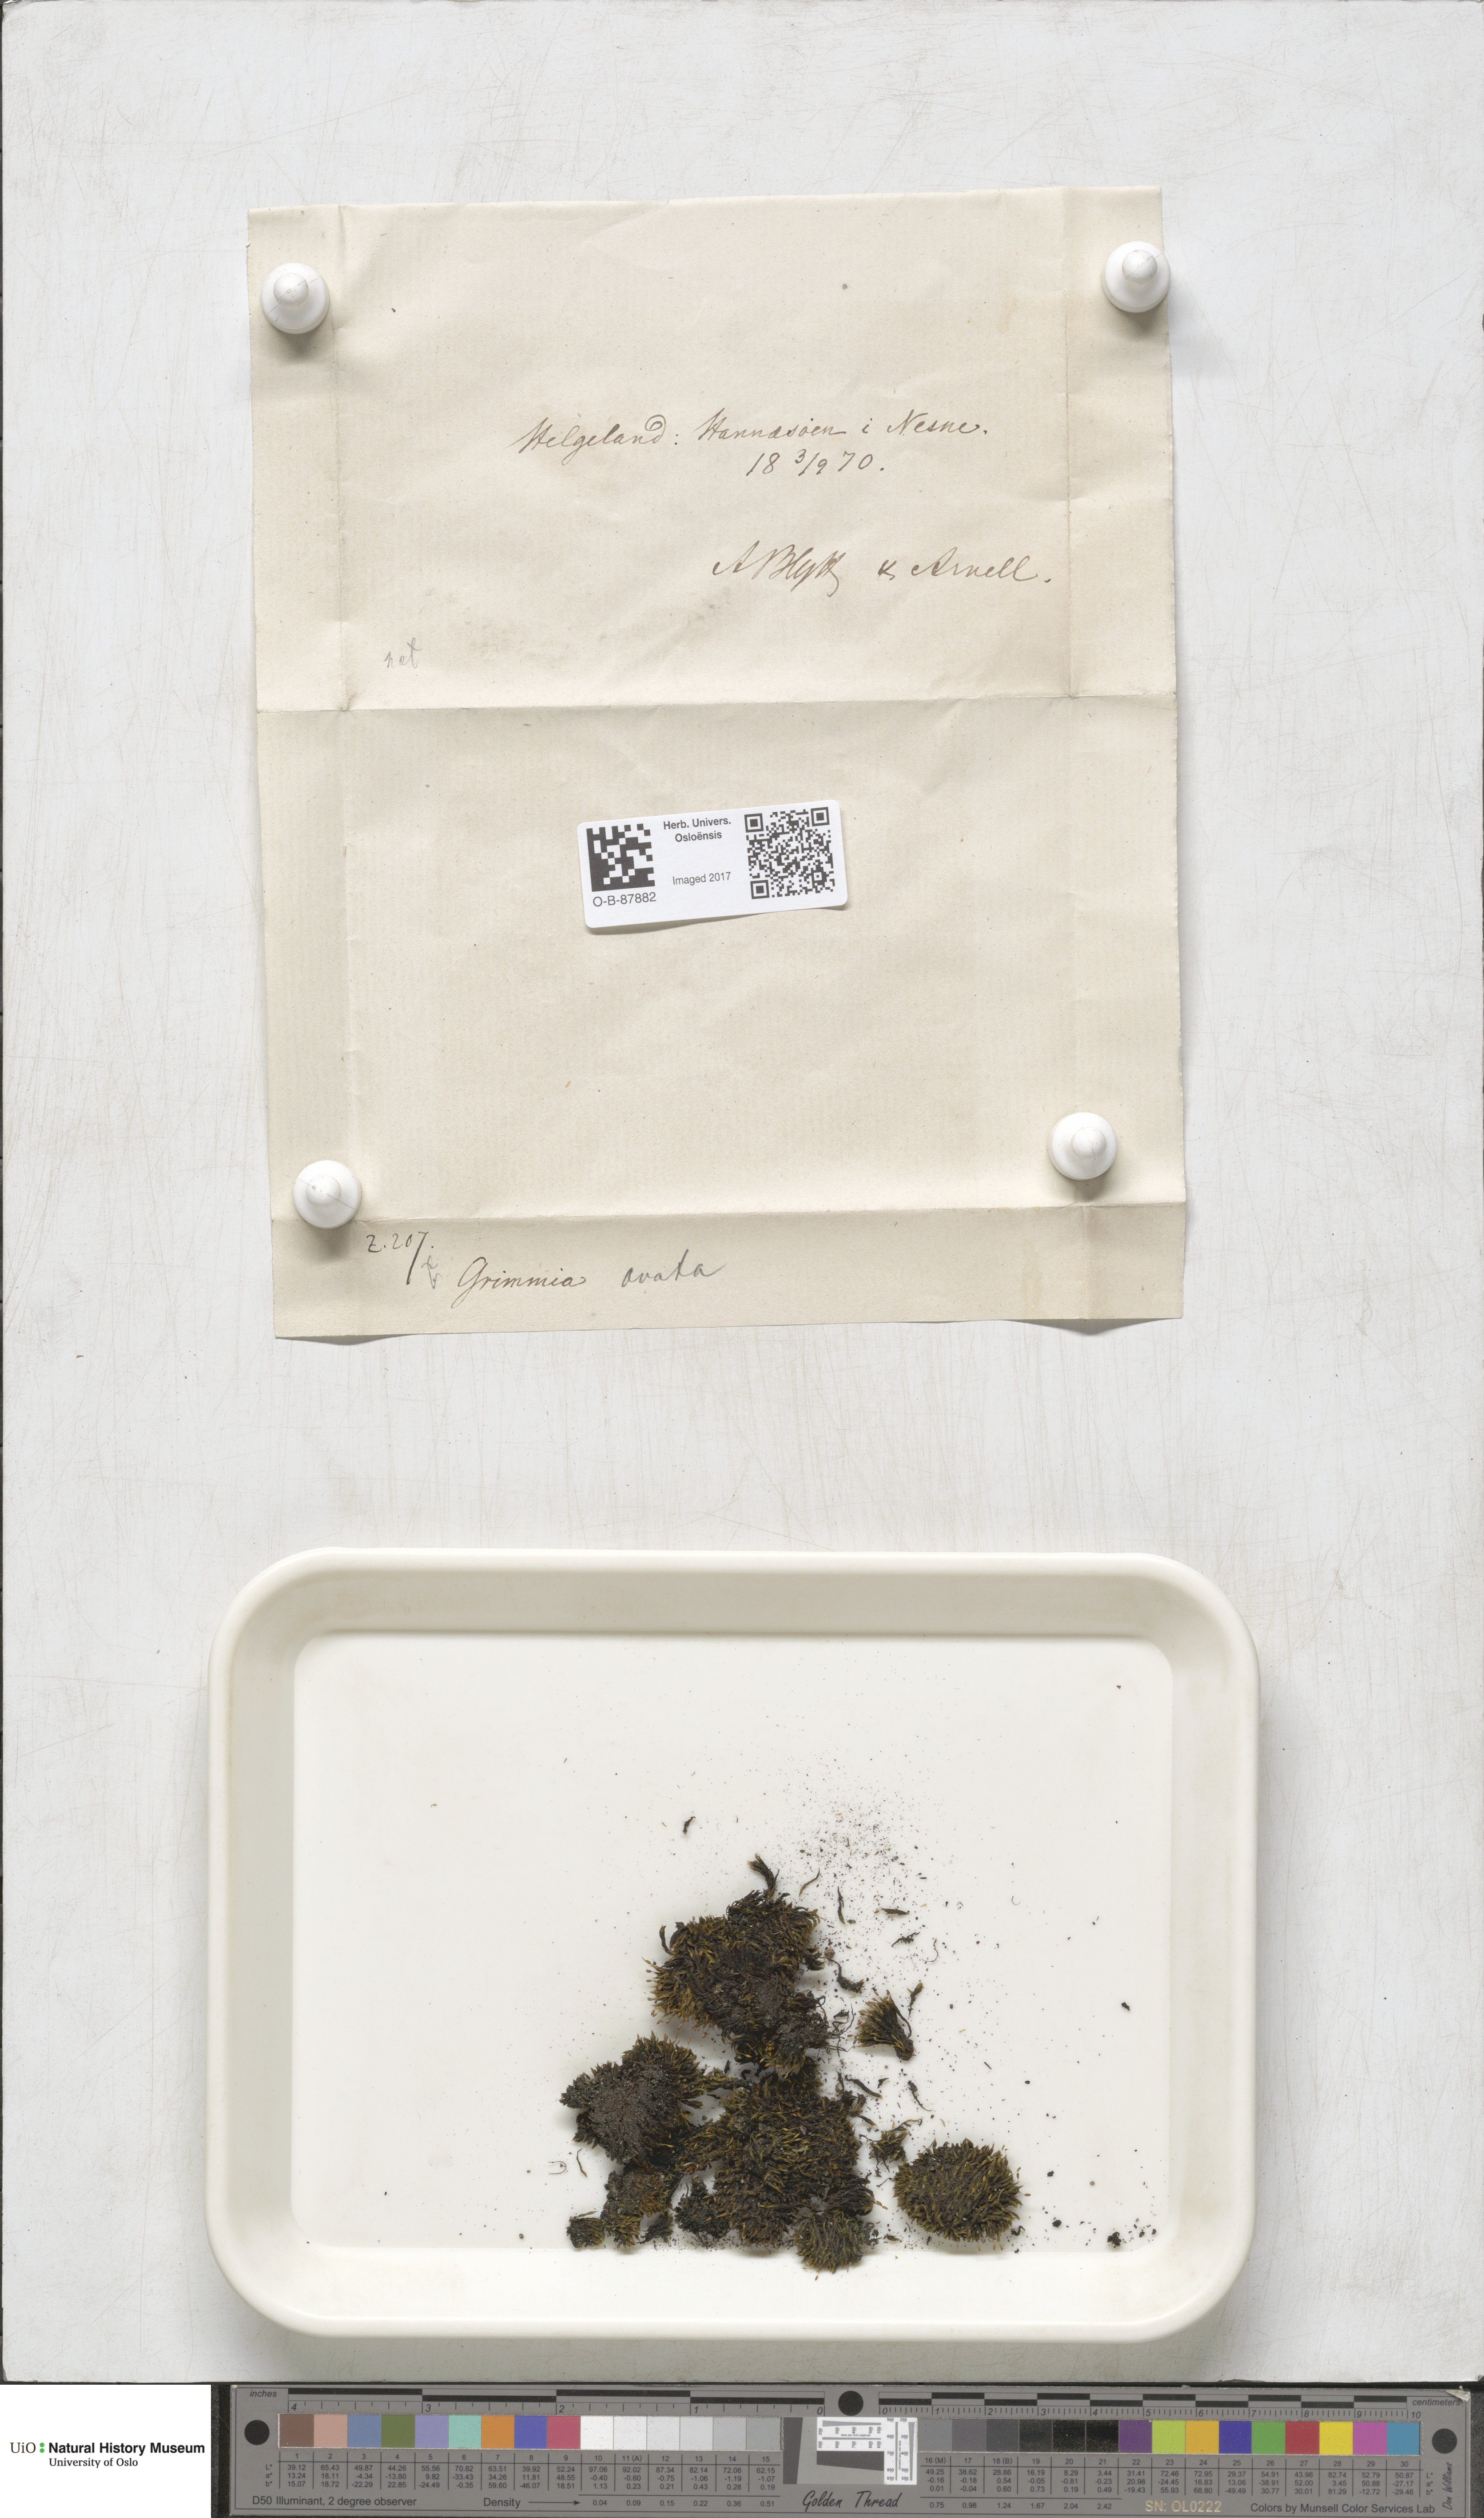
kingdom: Plantae
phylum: Bryophyta
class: Bryopsida
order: Grimmiales
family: Grimmiaceae
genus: Grimmia
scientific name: Grimmia ovalis
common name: Oval grimmia
